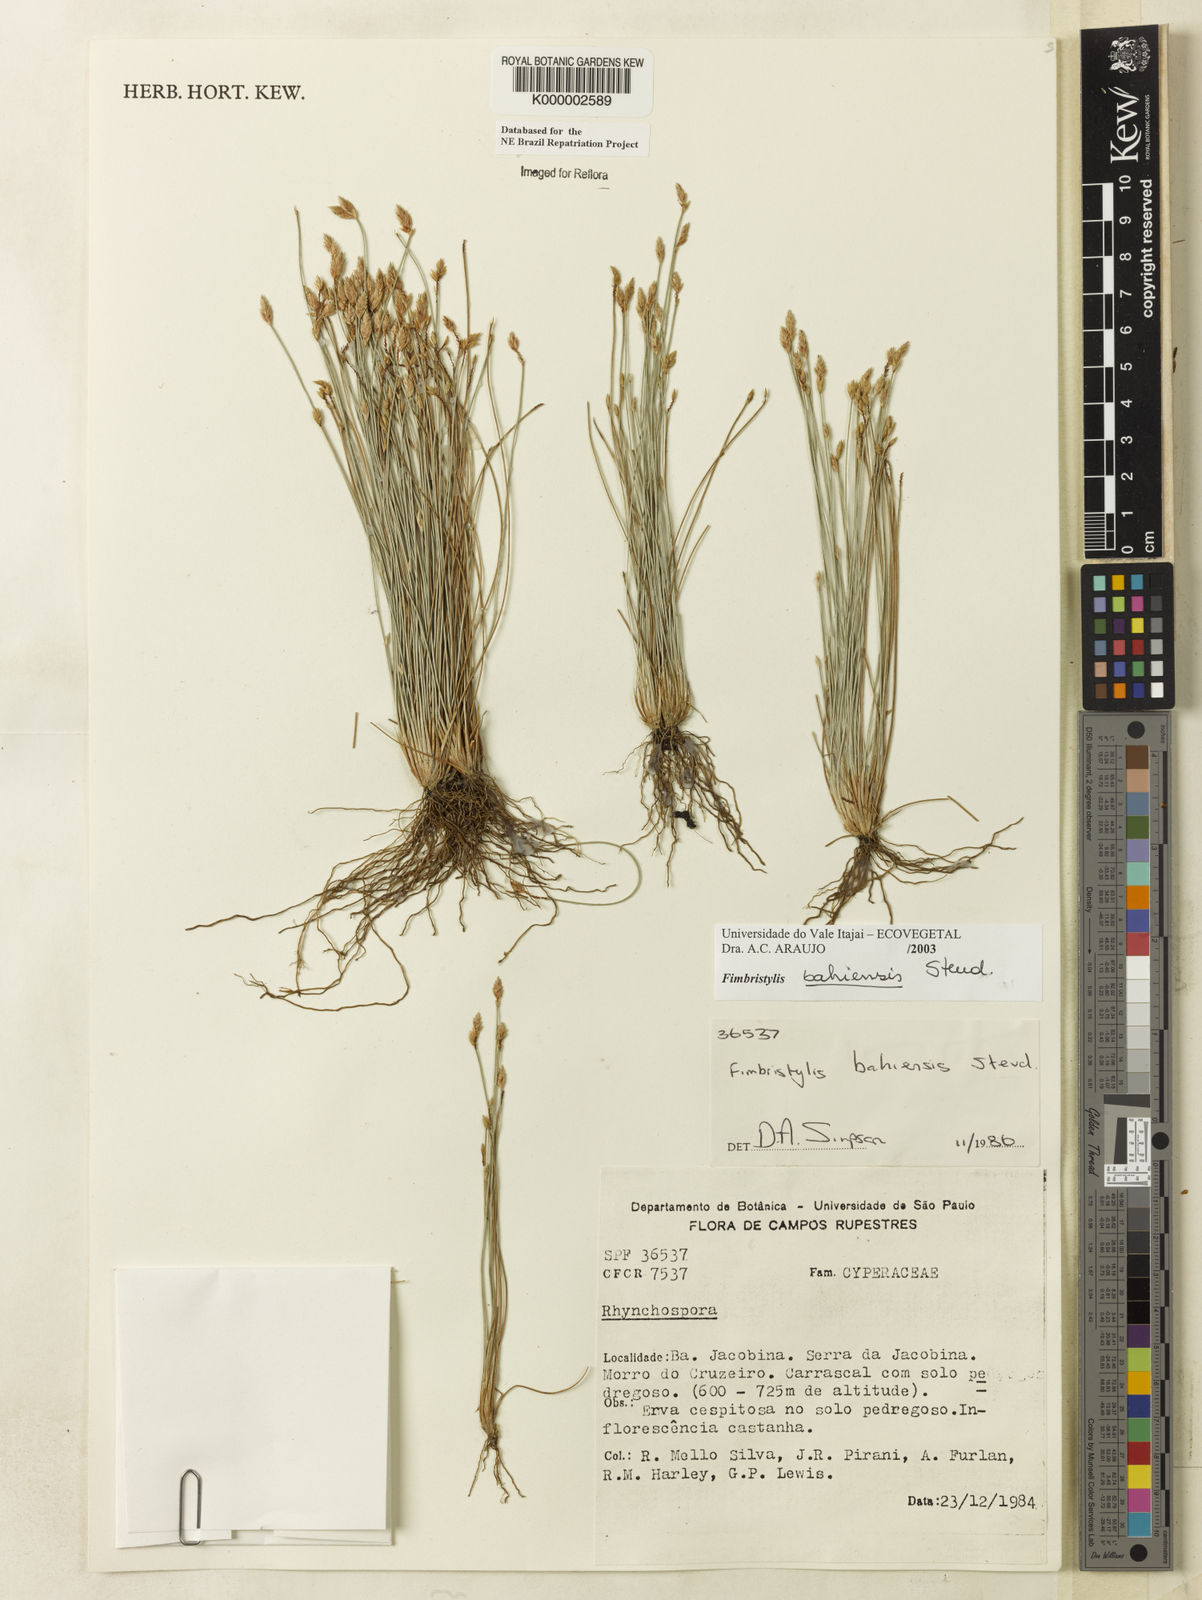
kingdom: Plantae
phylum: Tracheophyta
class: Liliopsida
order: Poales
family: Cyperaceae
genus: Fimbristylis
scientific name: Fimbristylis bahiensis
